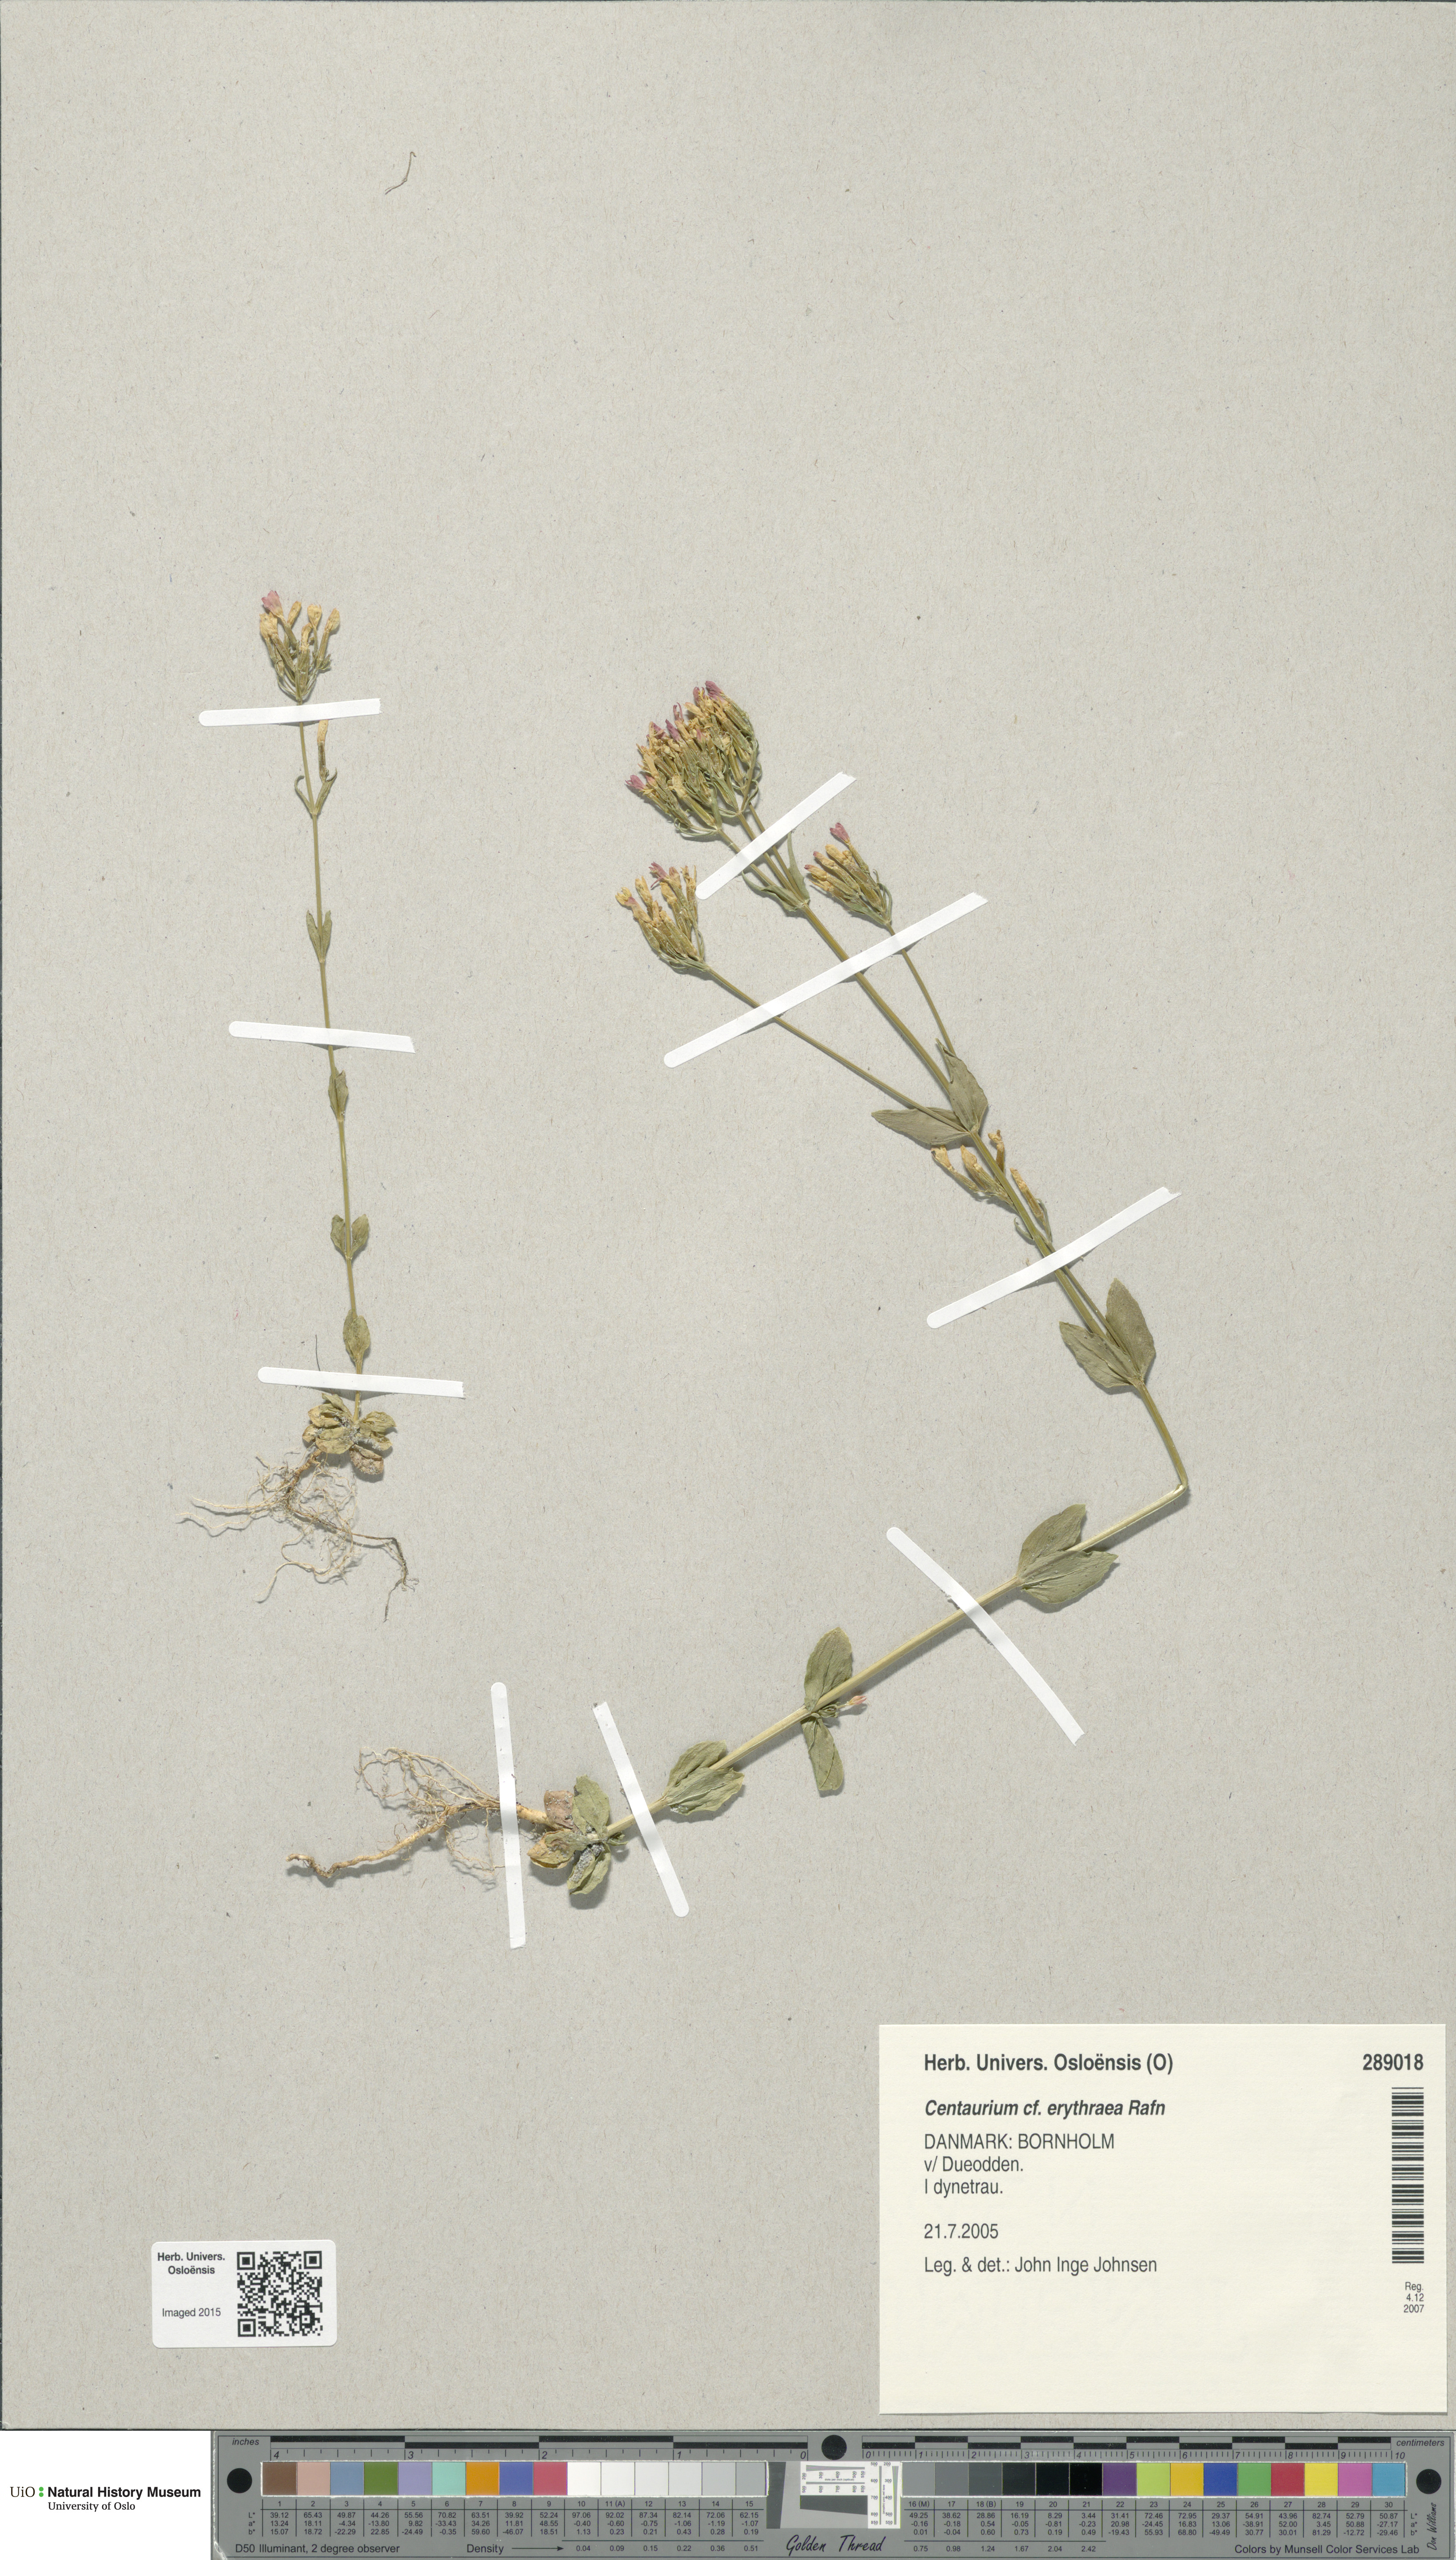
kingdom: Plantae
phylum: Tracheophyta
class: Magnoliopsida
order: Gentianales
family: Gentianaceae
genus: Centaurium
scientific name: Centaurium erythraea
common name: Common centaury
